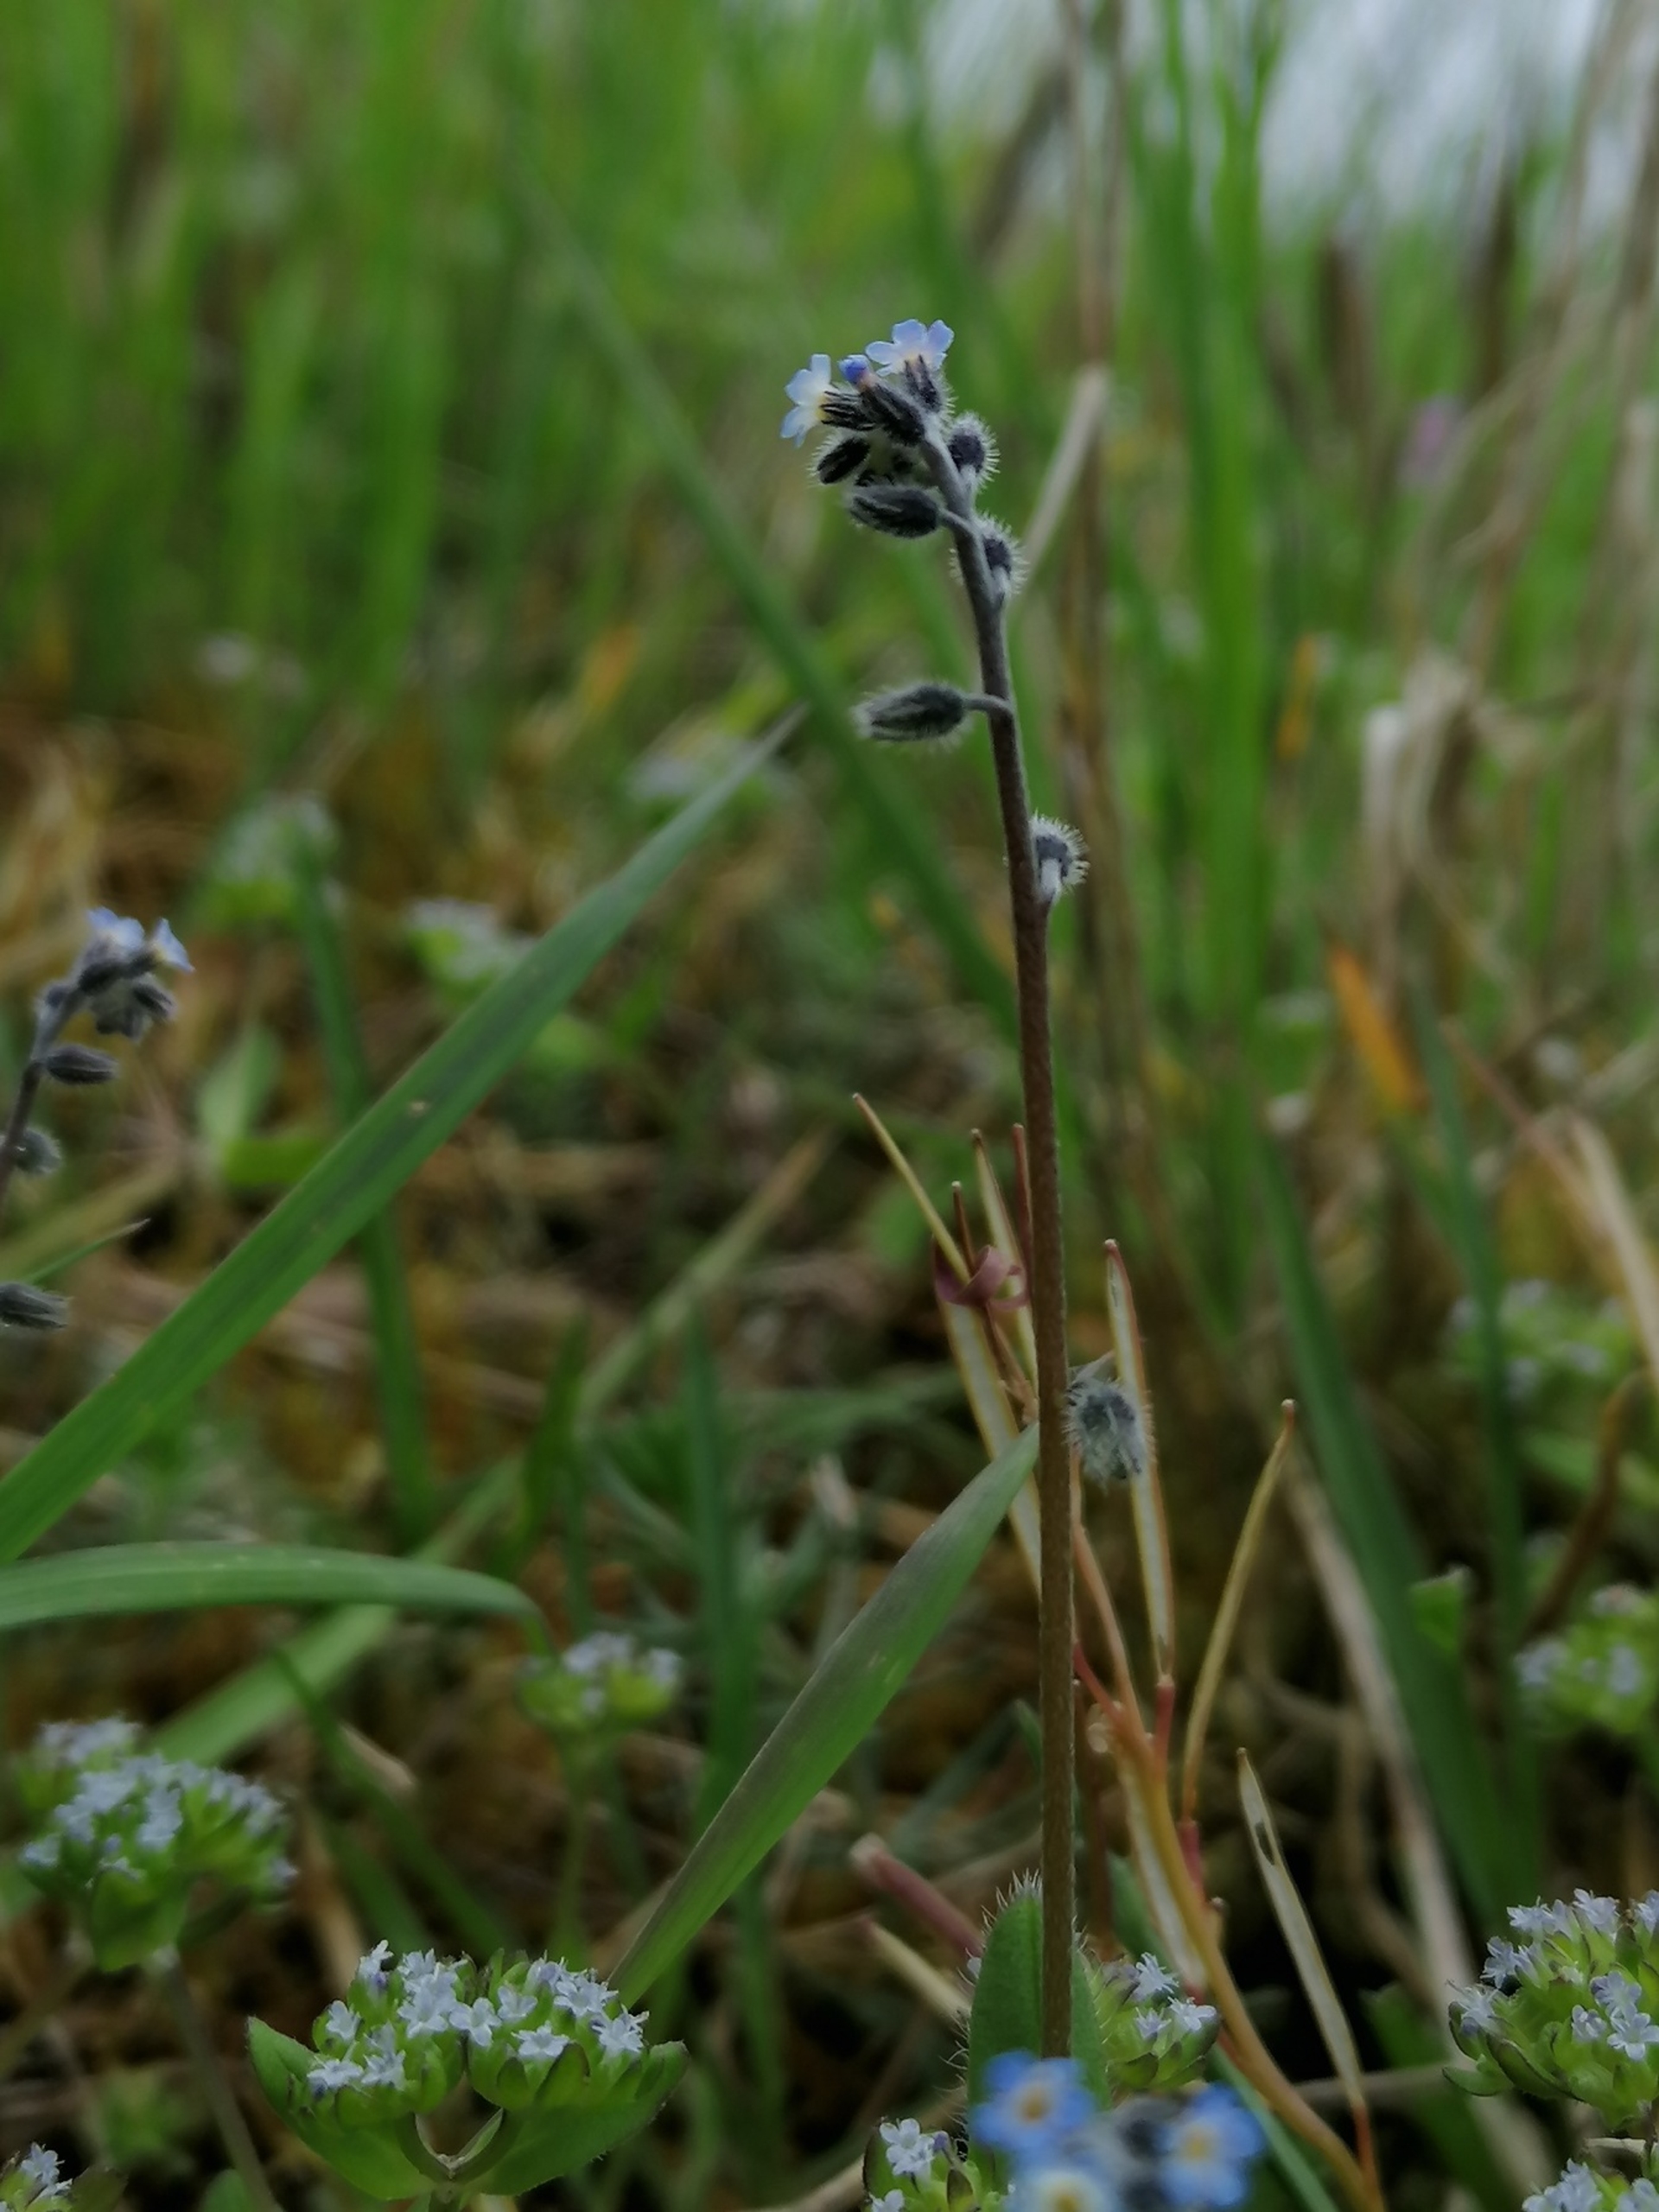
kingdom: Plantae
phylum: Tracheophyta
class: Magnoliopsida
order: Boraginales
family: Boraginaceae
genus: Myosotis
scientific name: Myosotis ramosissima
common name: Bakke-forglemmigej
